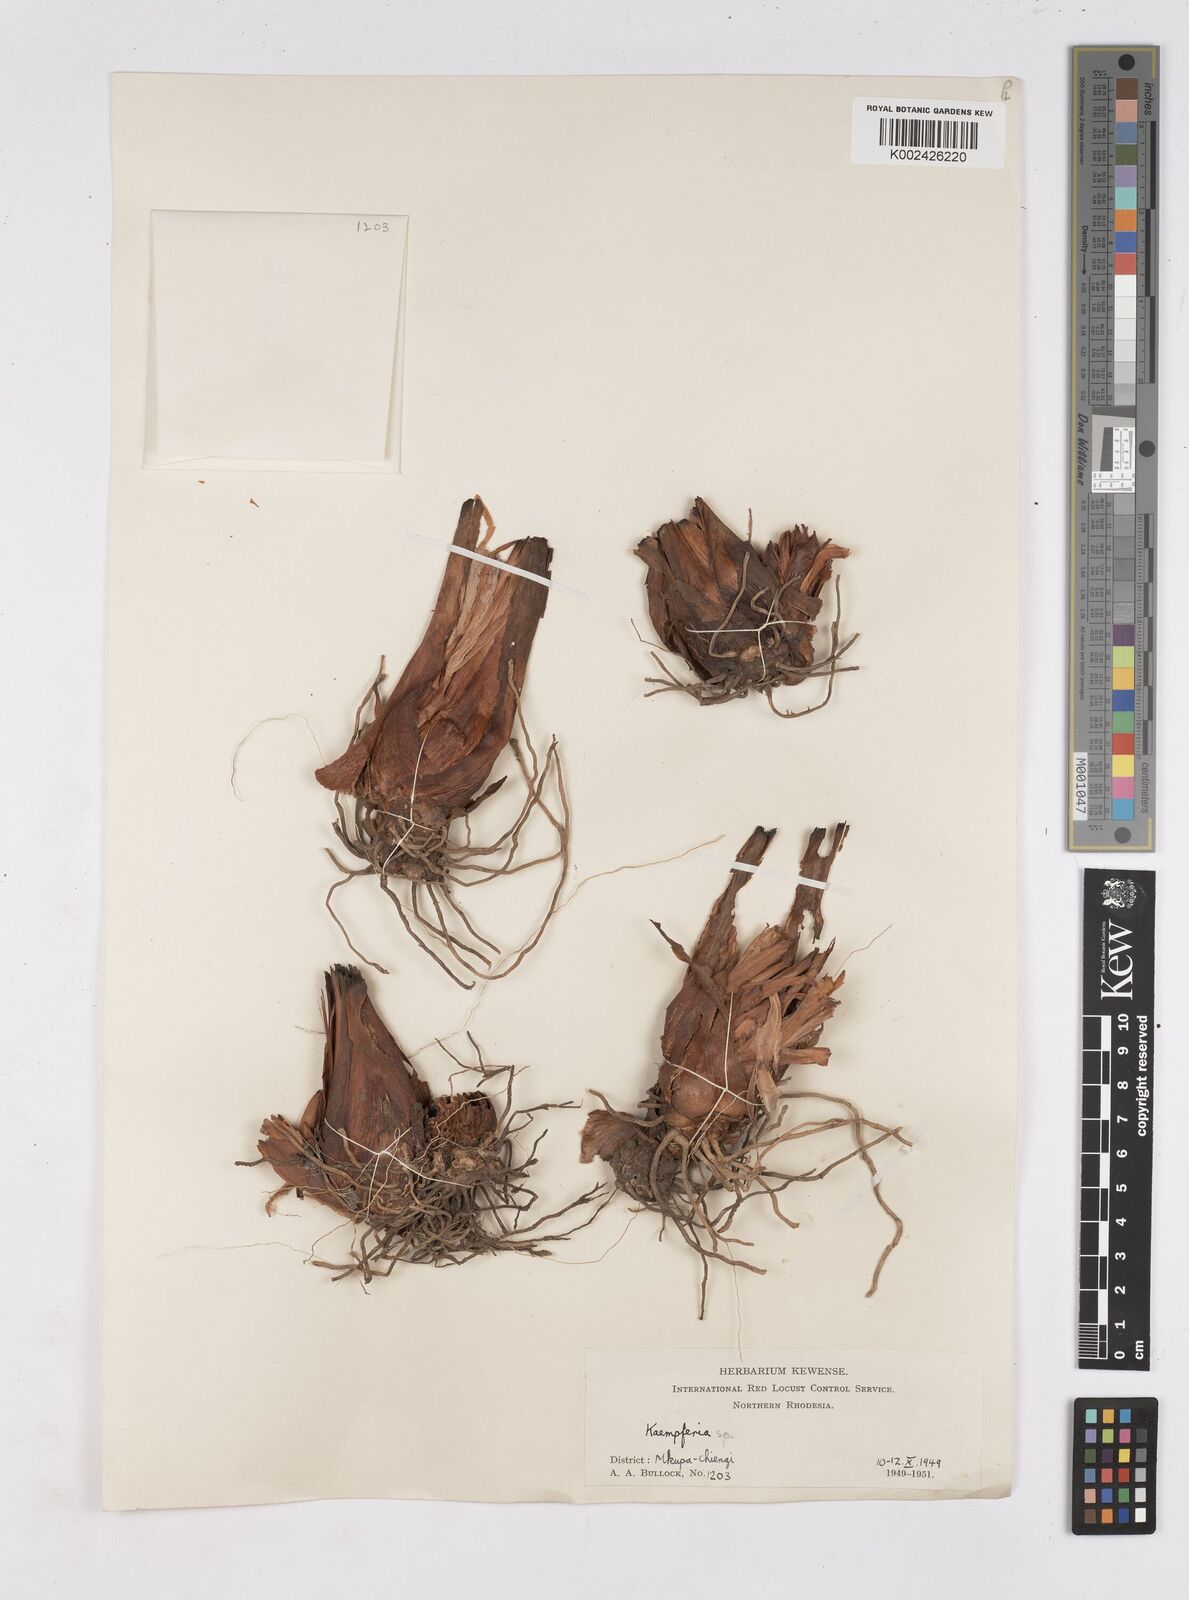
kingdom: Plantae
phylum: Tracheophyta
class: Liliopsida
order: Zingiberales
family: Zingiberaceae
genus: Siphonochilus
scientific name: Siphonochilus
